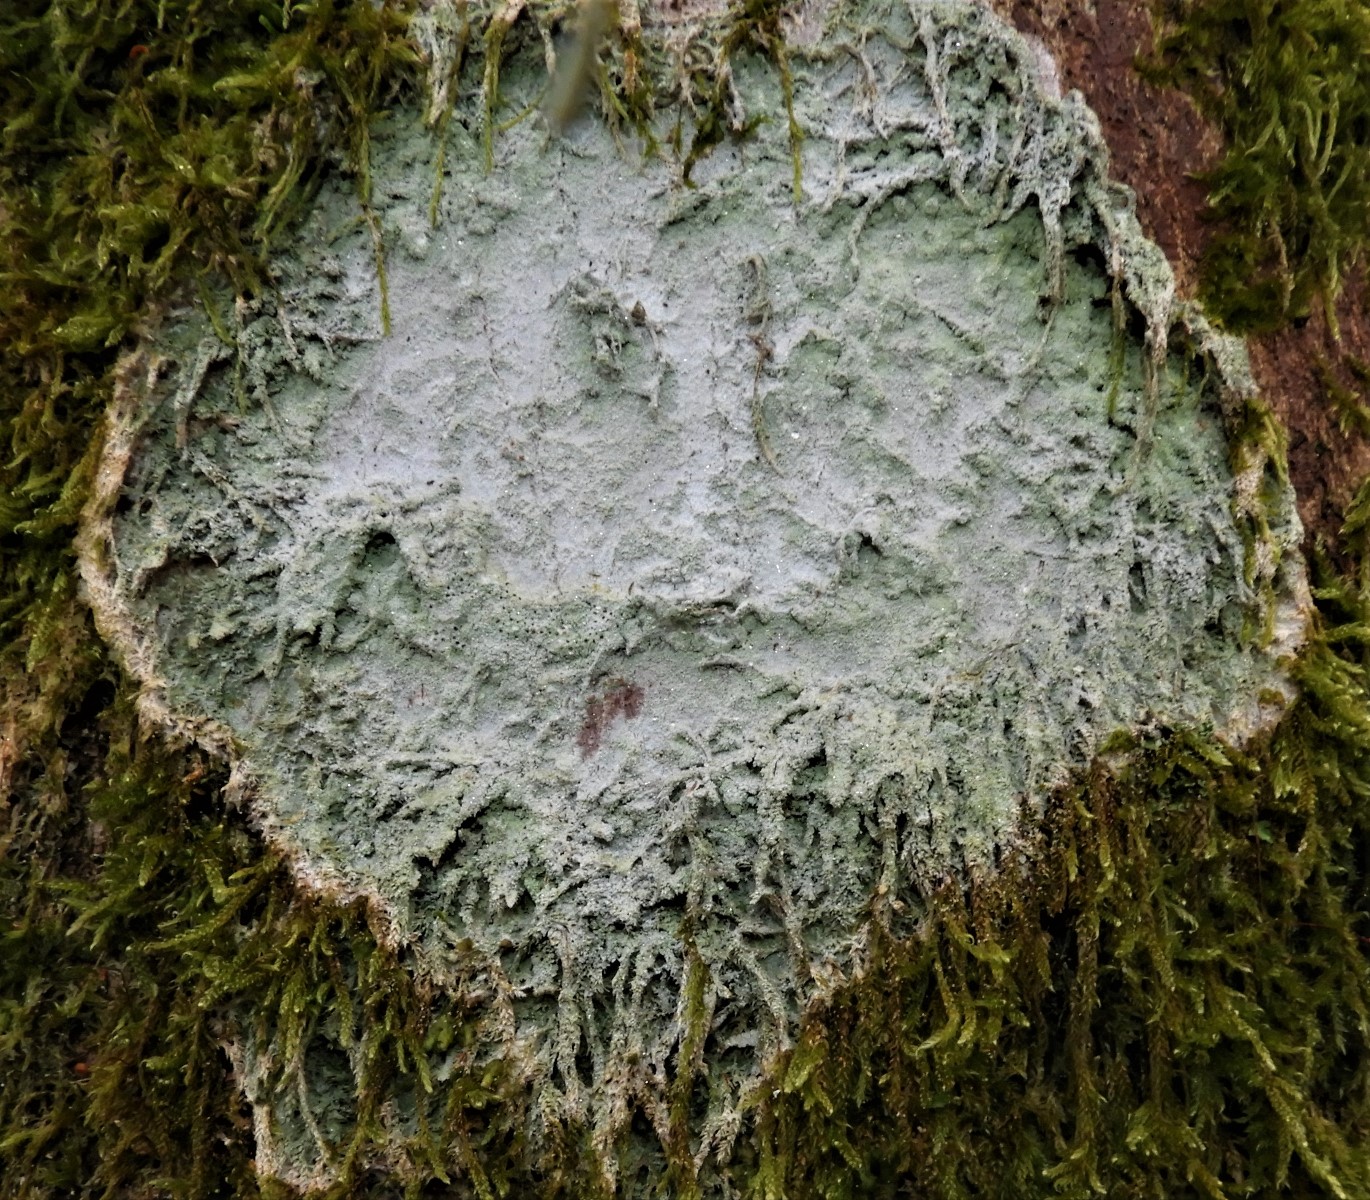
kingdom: Fungi
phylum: Ascomycota
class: Lecanoromycetes
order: Ostropales
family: Phlyctidaceae
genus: Phlyctis
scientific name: Phlyctis argena
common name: almindelig sølvlav
